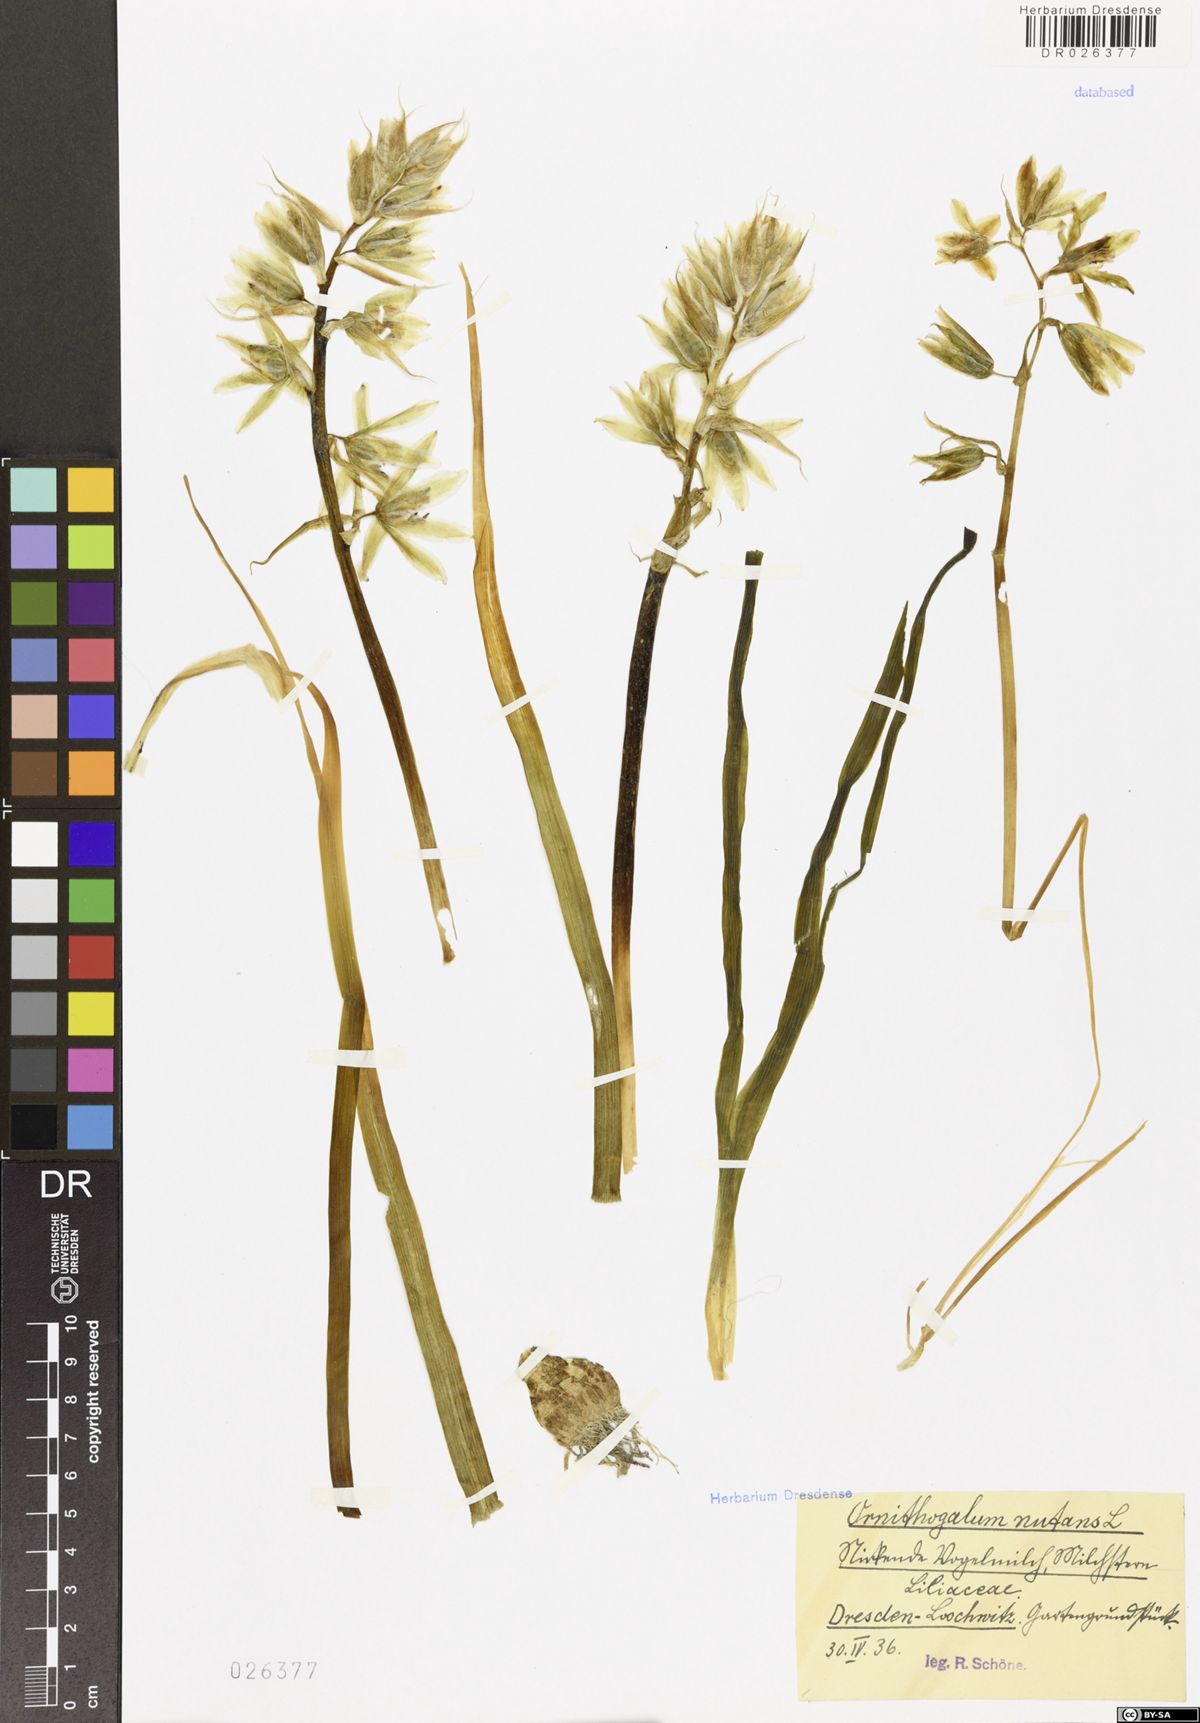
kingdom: Plantae
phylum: Tracheophyta
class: Liliopsida
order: Asparagales
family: Asparagaceae
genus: Ornithogalum
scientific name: Ornithogalum nutans
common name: Drooping star-of-bethlehem
